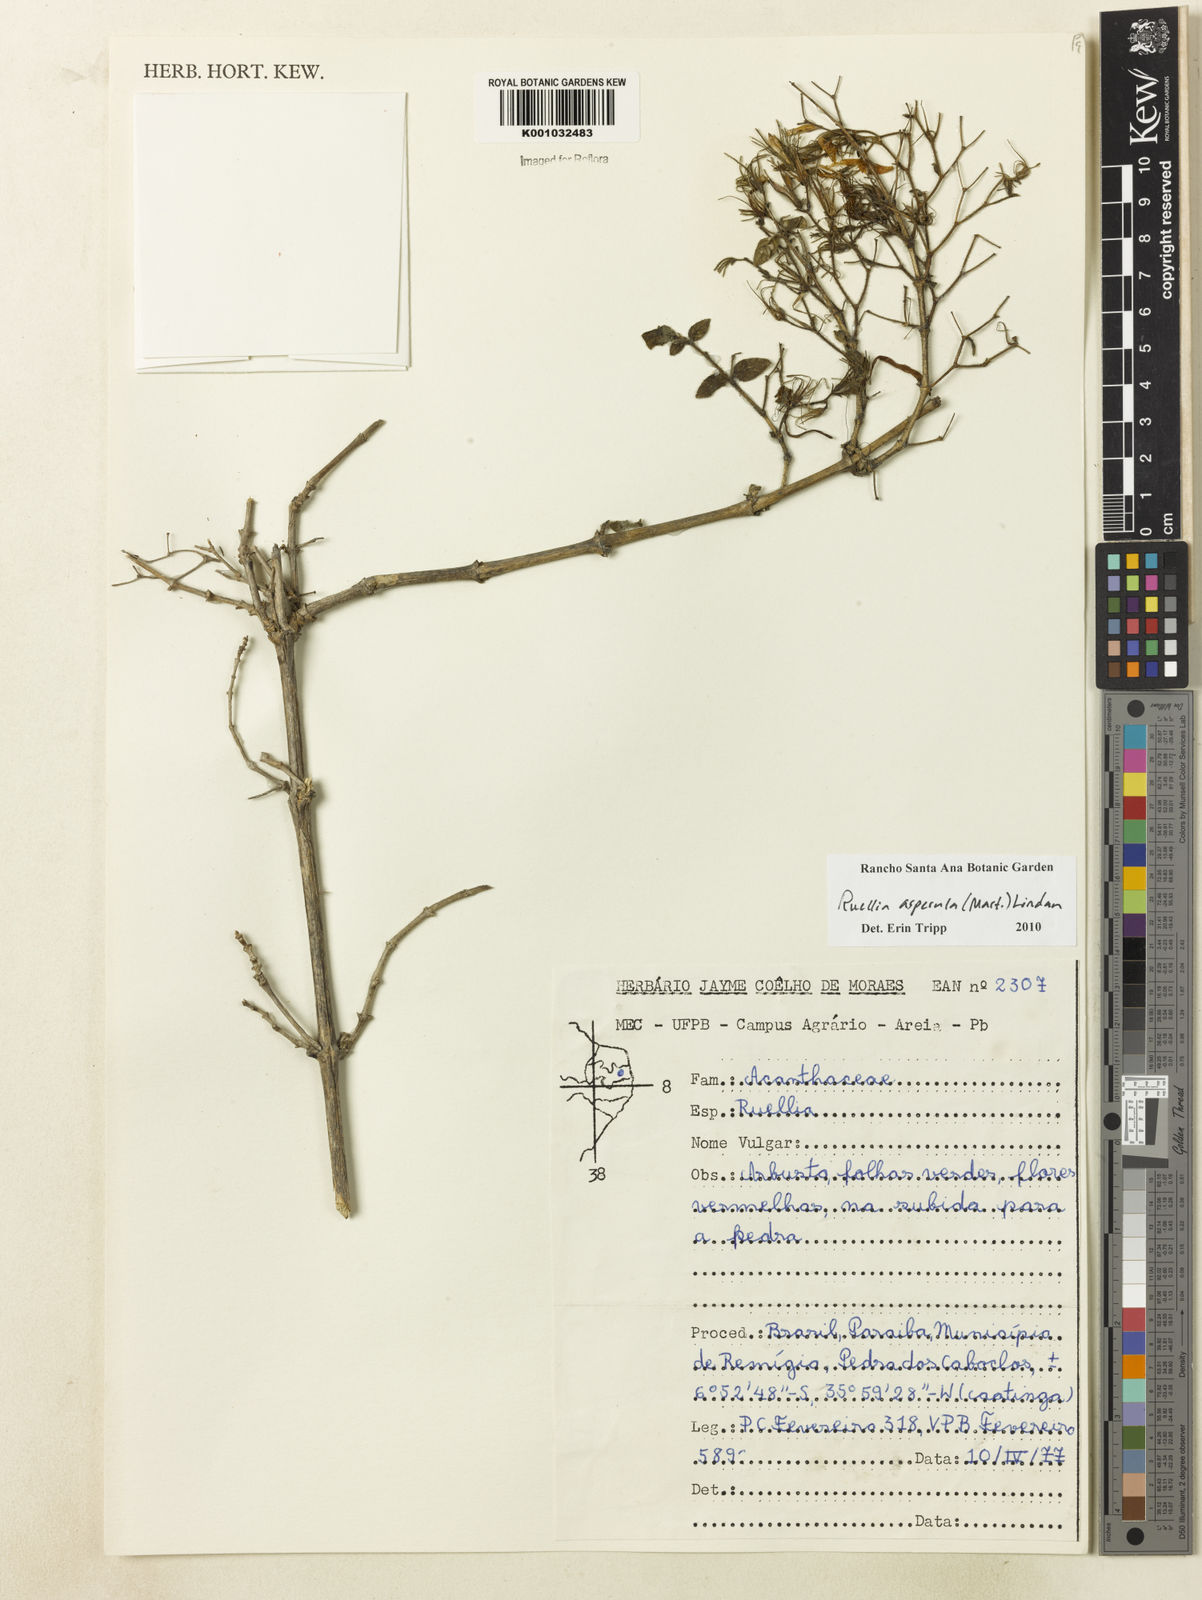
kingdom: Plantae
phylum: Tracheophyta
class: Magnoliopsida
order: Lamiales
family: Acanthaceae
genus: Ruellia
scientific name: Ruellia asperula
